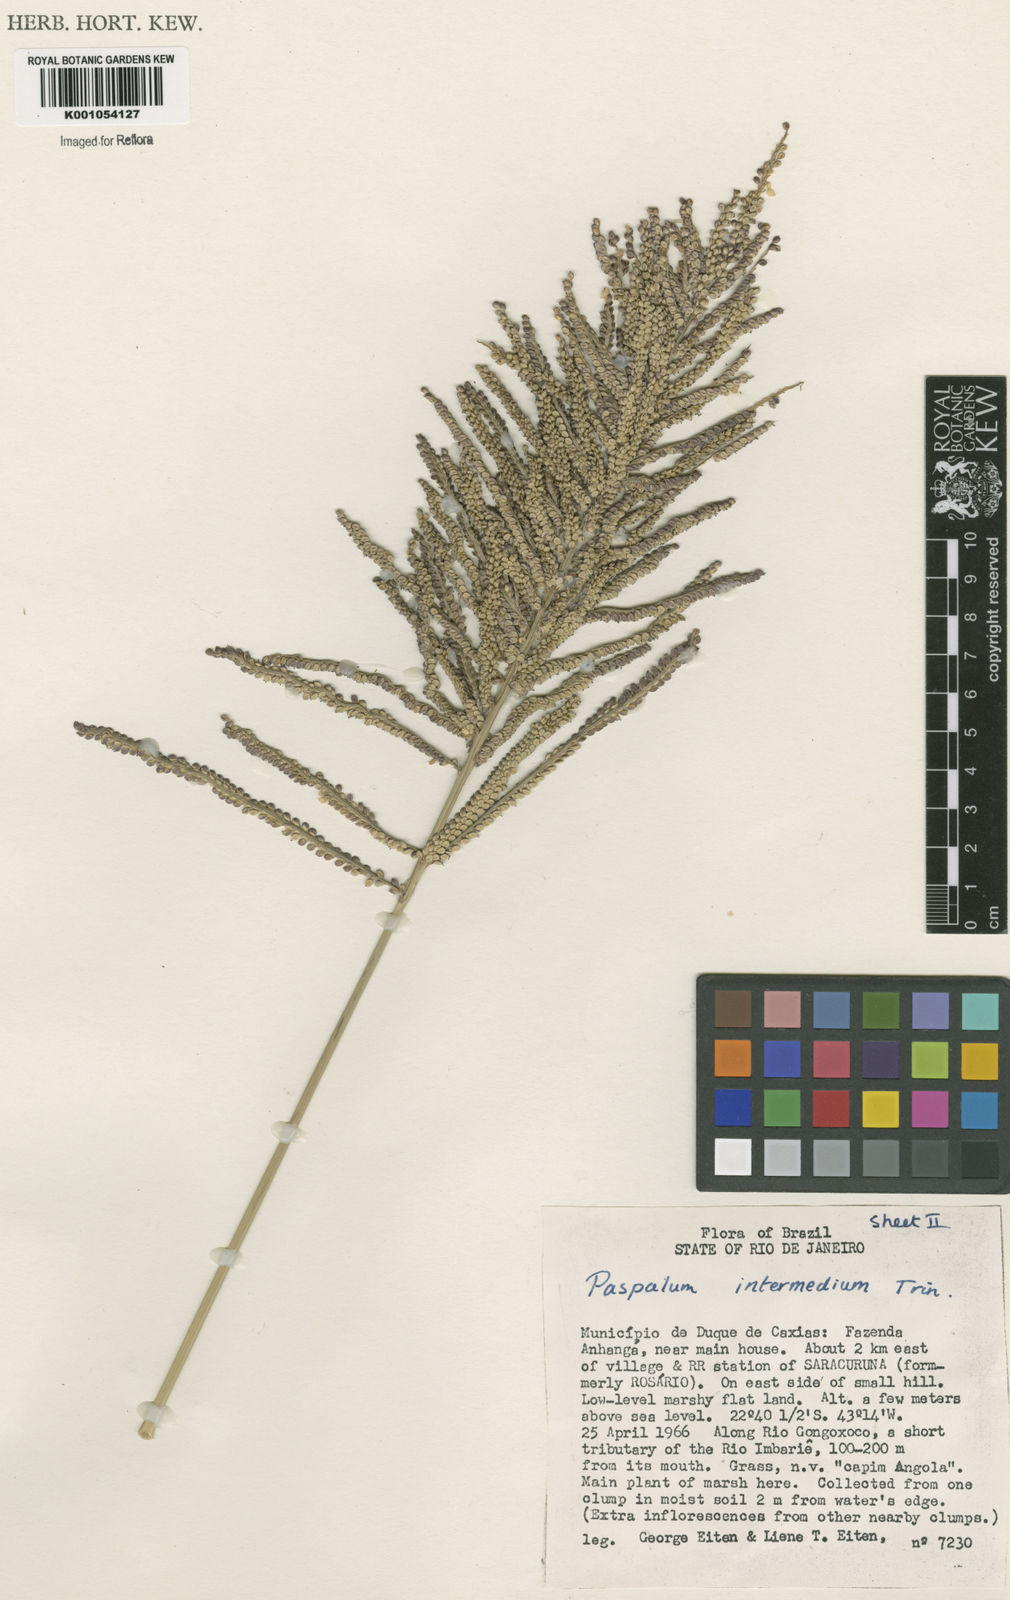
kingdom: Plantae
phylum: Tracheophyta
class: Liliopsida
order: Poales
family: Poaceae
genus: Paspalum
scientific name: Paspalum
